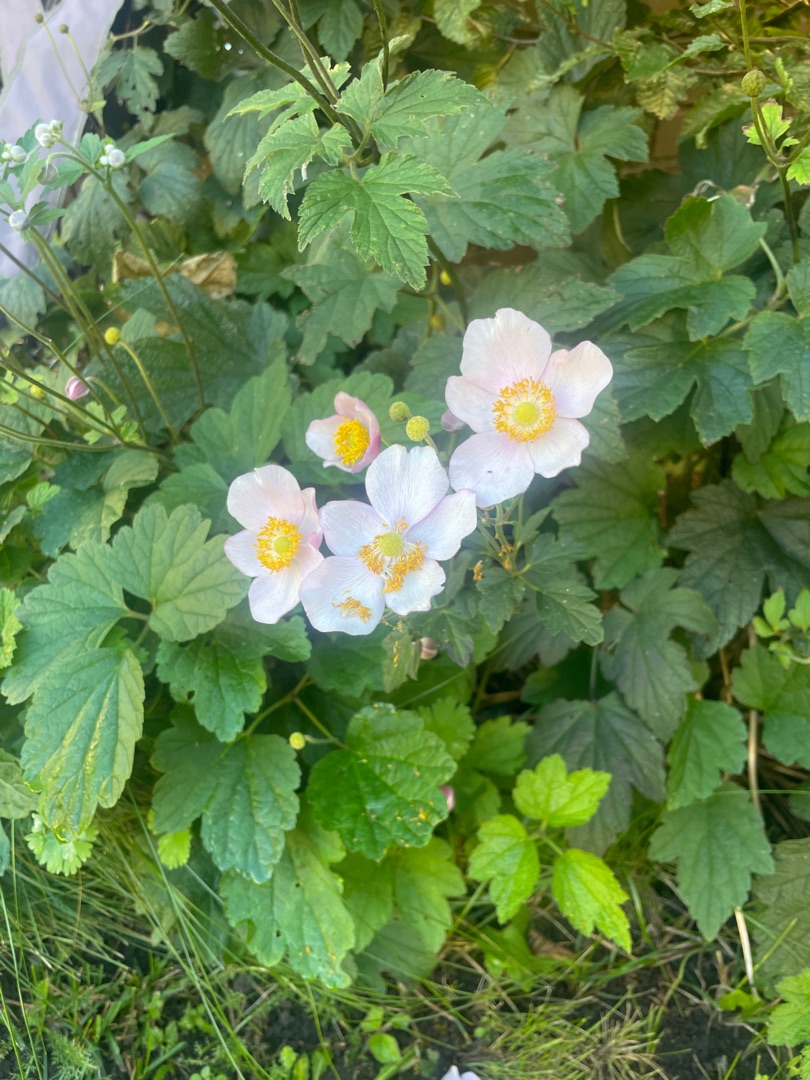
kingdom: Plantae
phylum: Tracheophyta
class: Magnoliopsida
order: Ranunculales
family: Ranunculaceae
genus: Eriocapitella
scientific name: Eriocapitella hupehensis
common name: Høst-anemone
